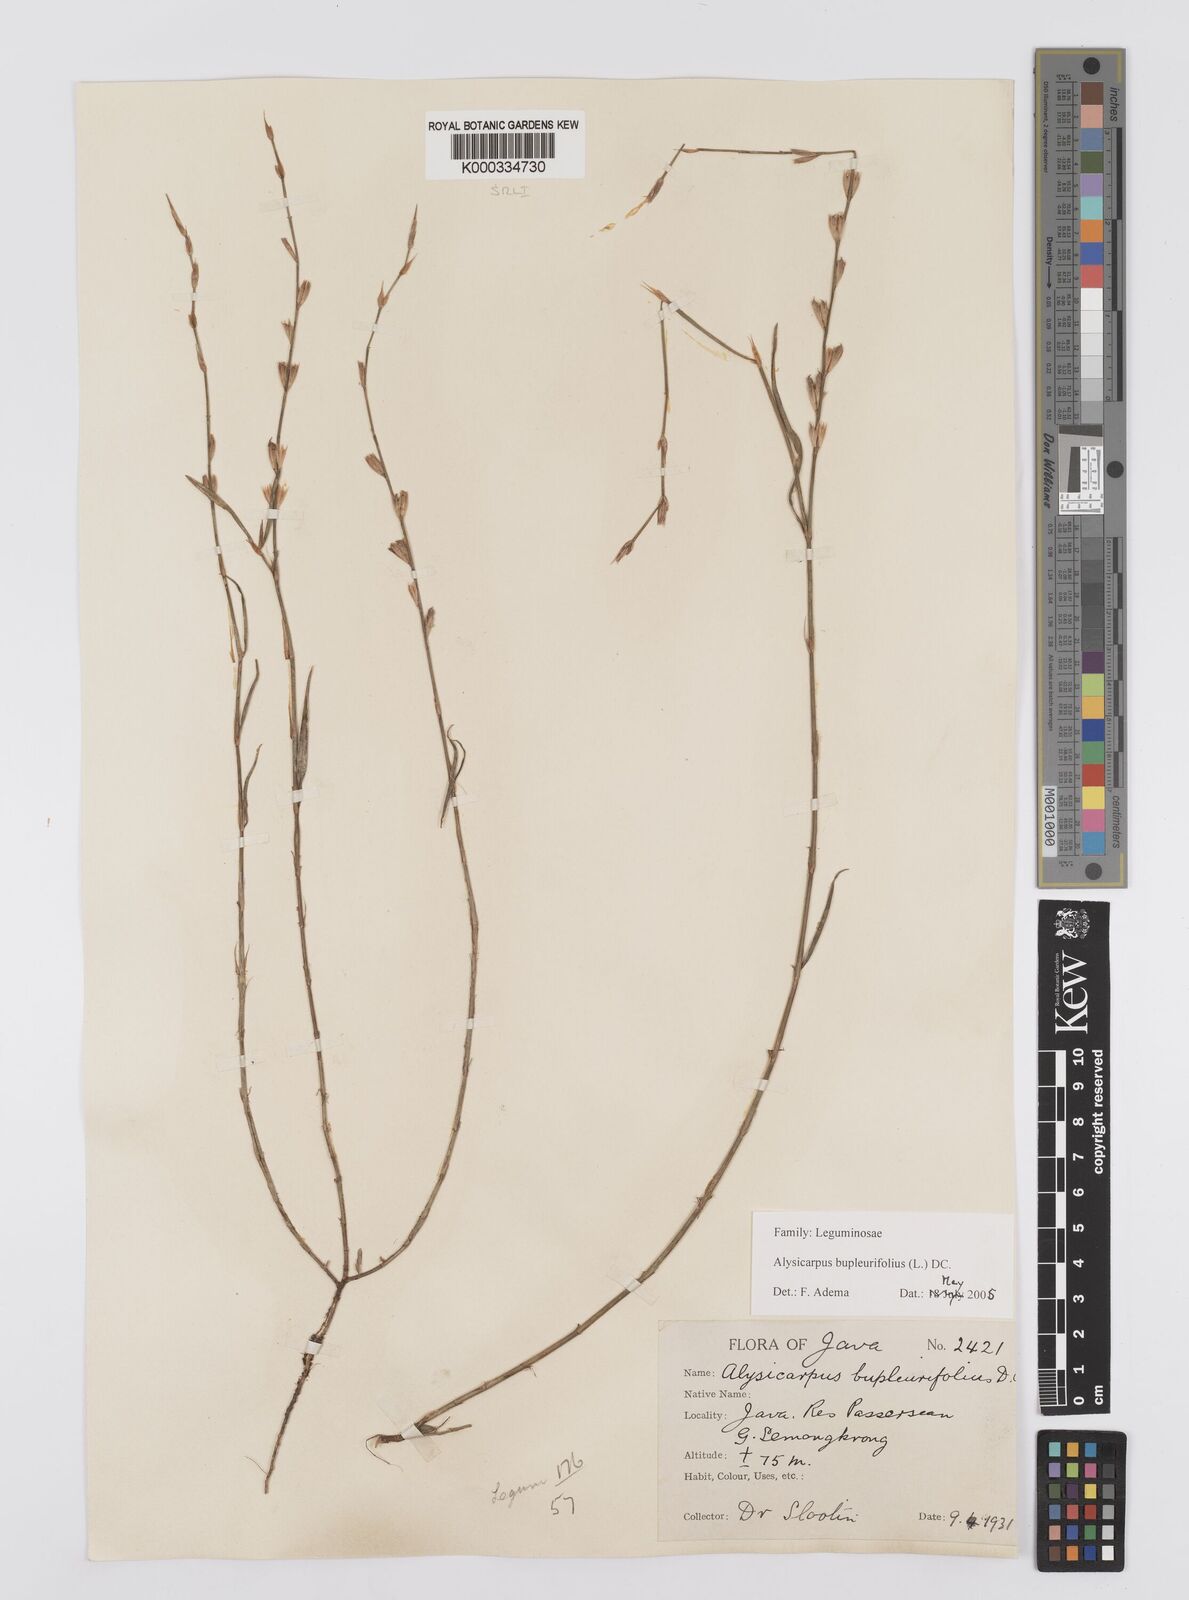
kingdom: Plantae
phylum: Tracheophyta
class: Magnoliopsida
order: Fabales
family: Fabaceae
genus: Alysicarpus
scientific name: Alysicarpus bupleurifolius
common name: Sweet alys
